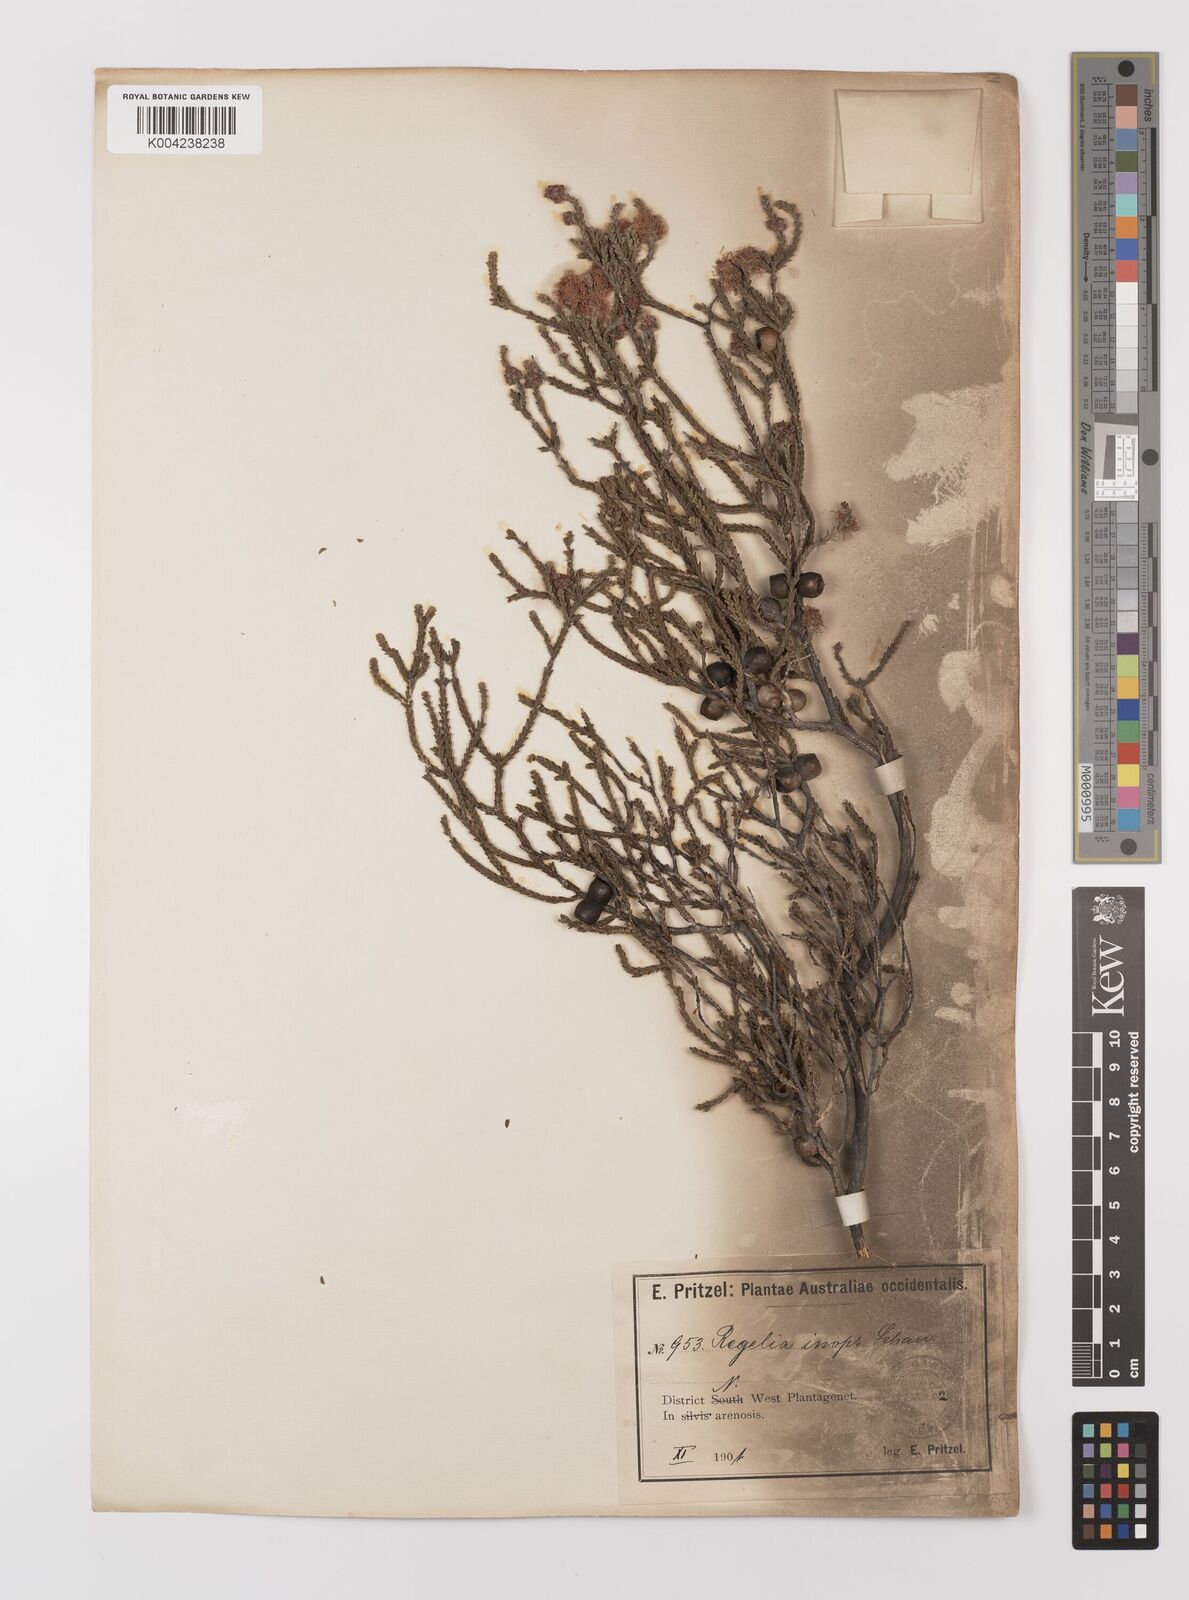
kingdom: Plantae
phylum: Tracheophyta
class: Magnoliopsida
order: Myrtales
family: Myrtaceae
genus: Melaleuca
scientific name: Melaleuca inops
